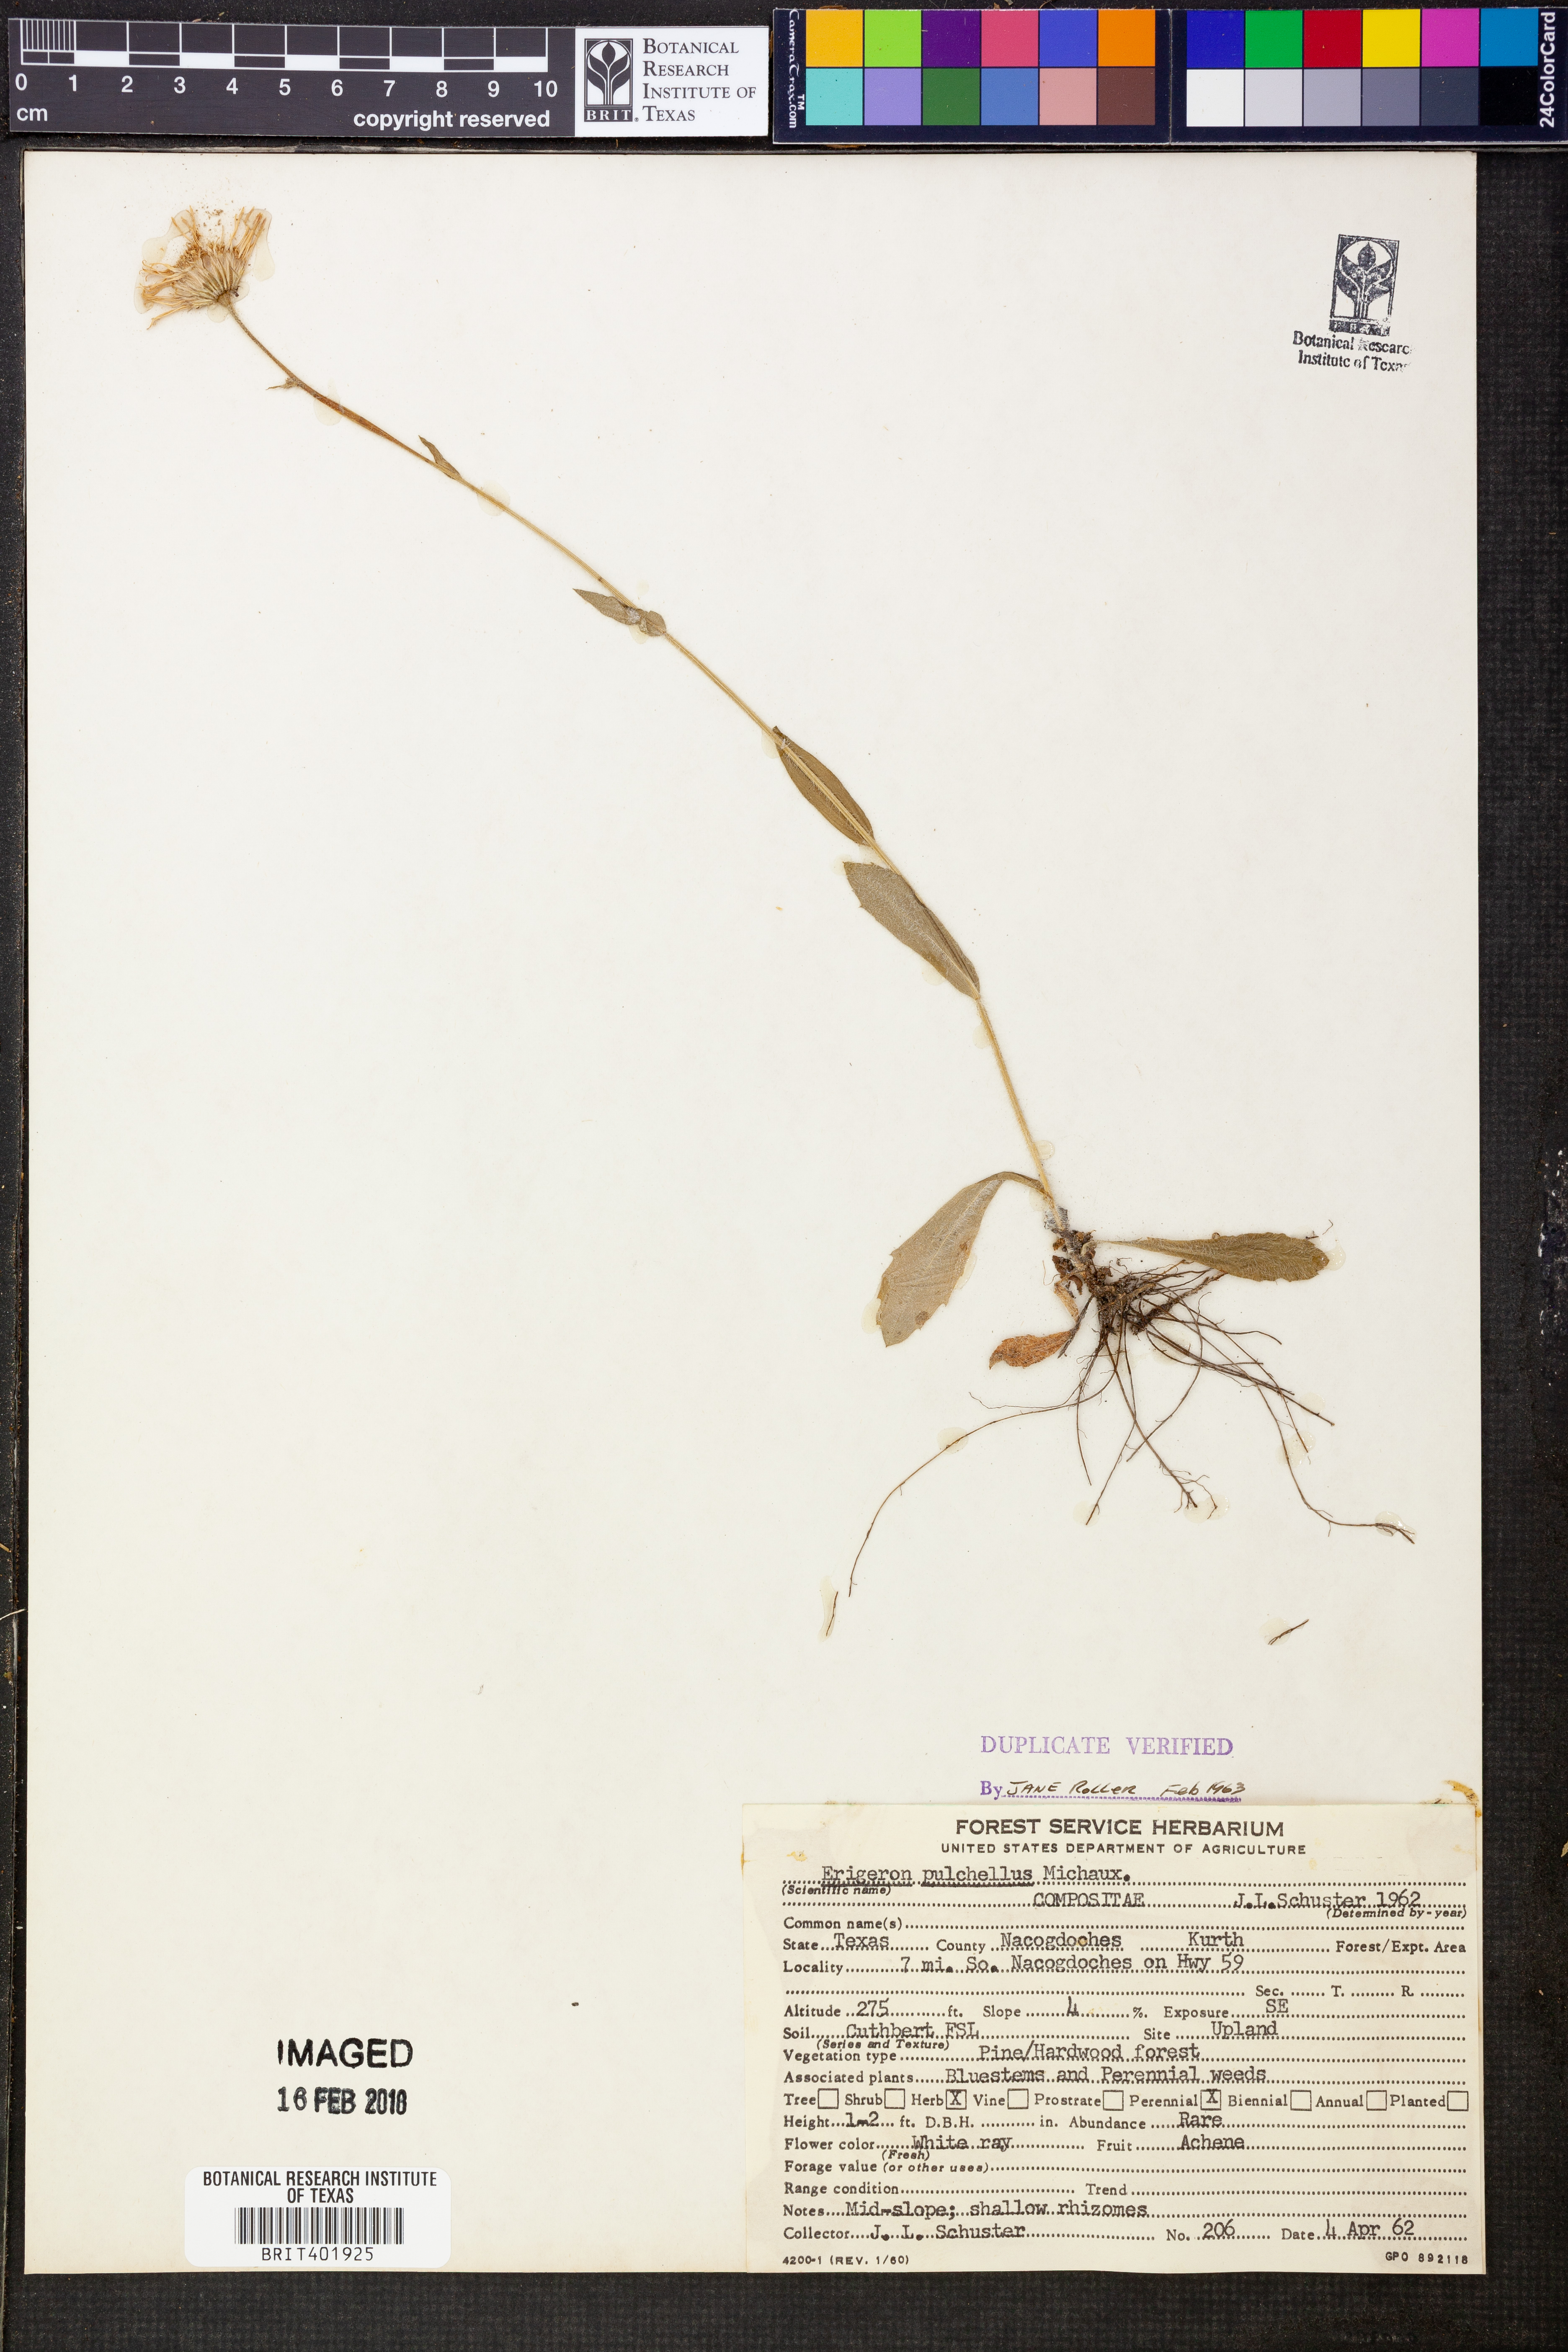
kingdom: Plantae
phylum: Tracheophyta
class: Magnoliopsida
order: Asterales
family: Asteraceae
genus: Erigeron
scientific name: Erigeron pulchellus
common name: Hairy fleabane
